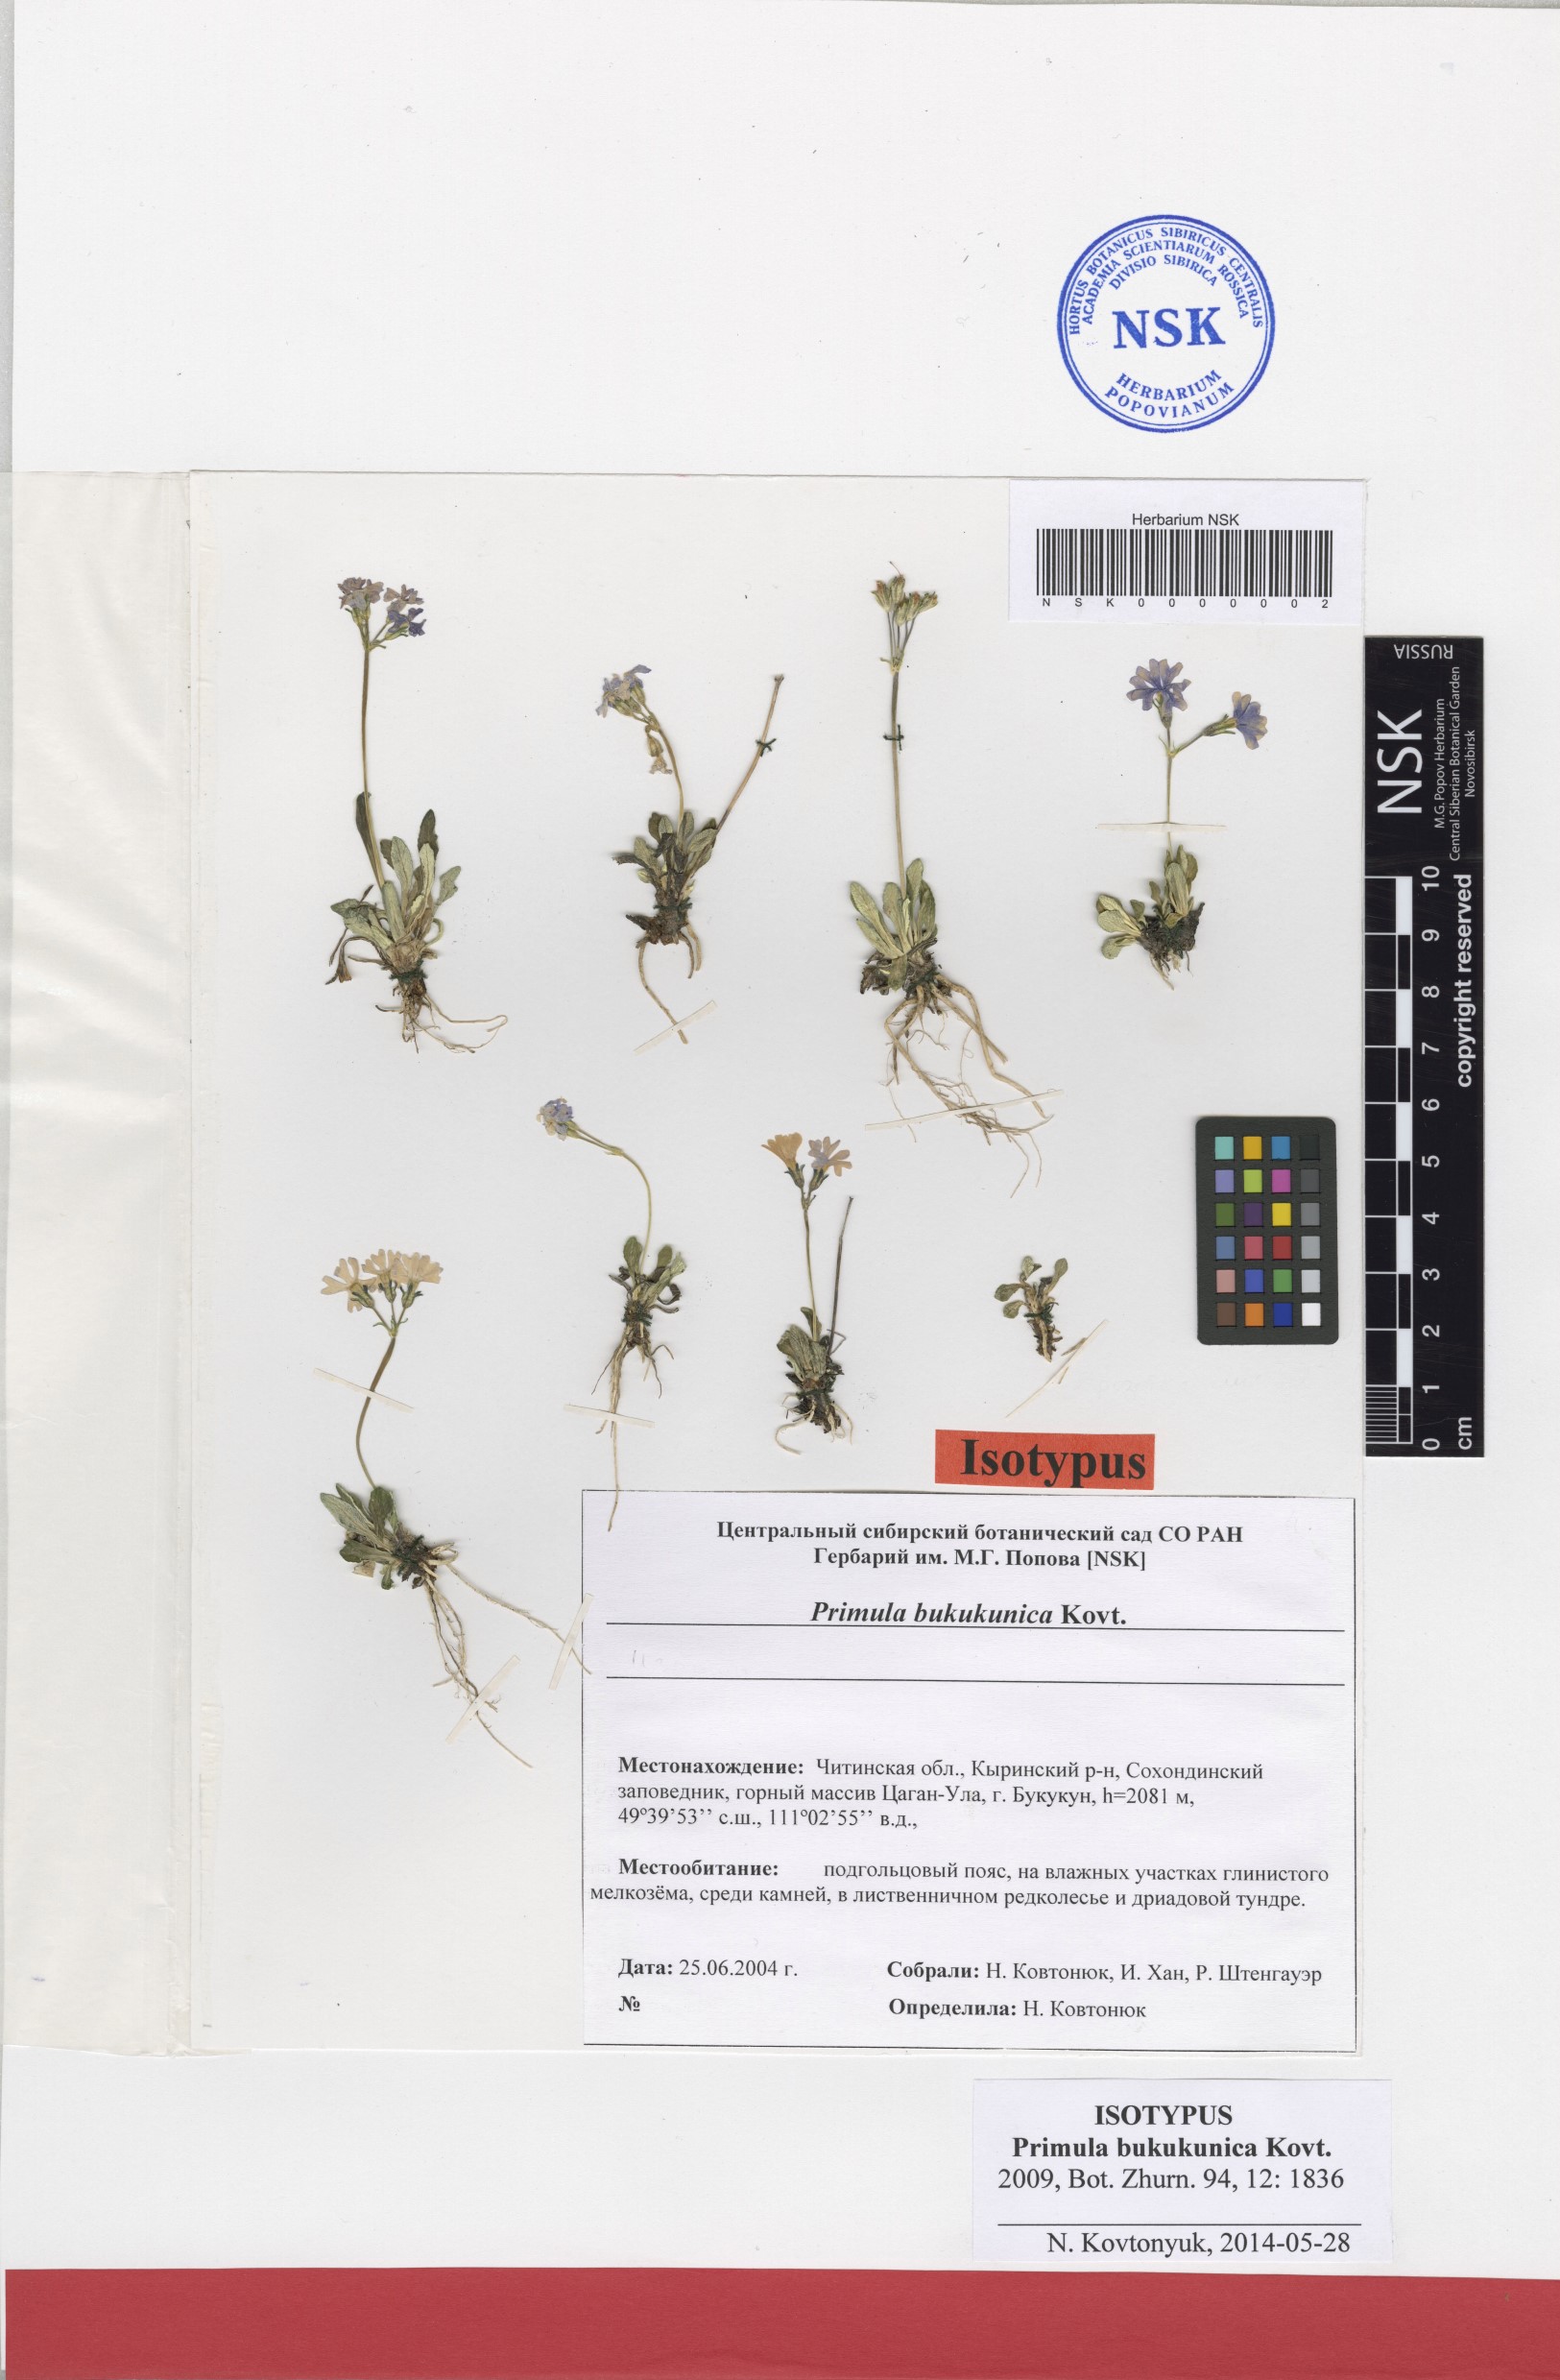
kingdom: Plantae
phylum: Tracheophyta
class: Magnoliopsida
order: Ericales
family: Primulaceae
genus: Primula
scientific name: Primula bukukunica
